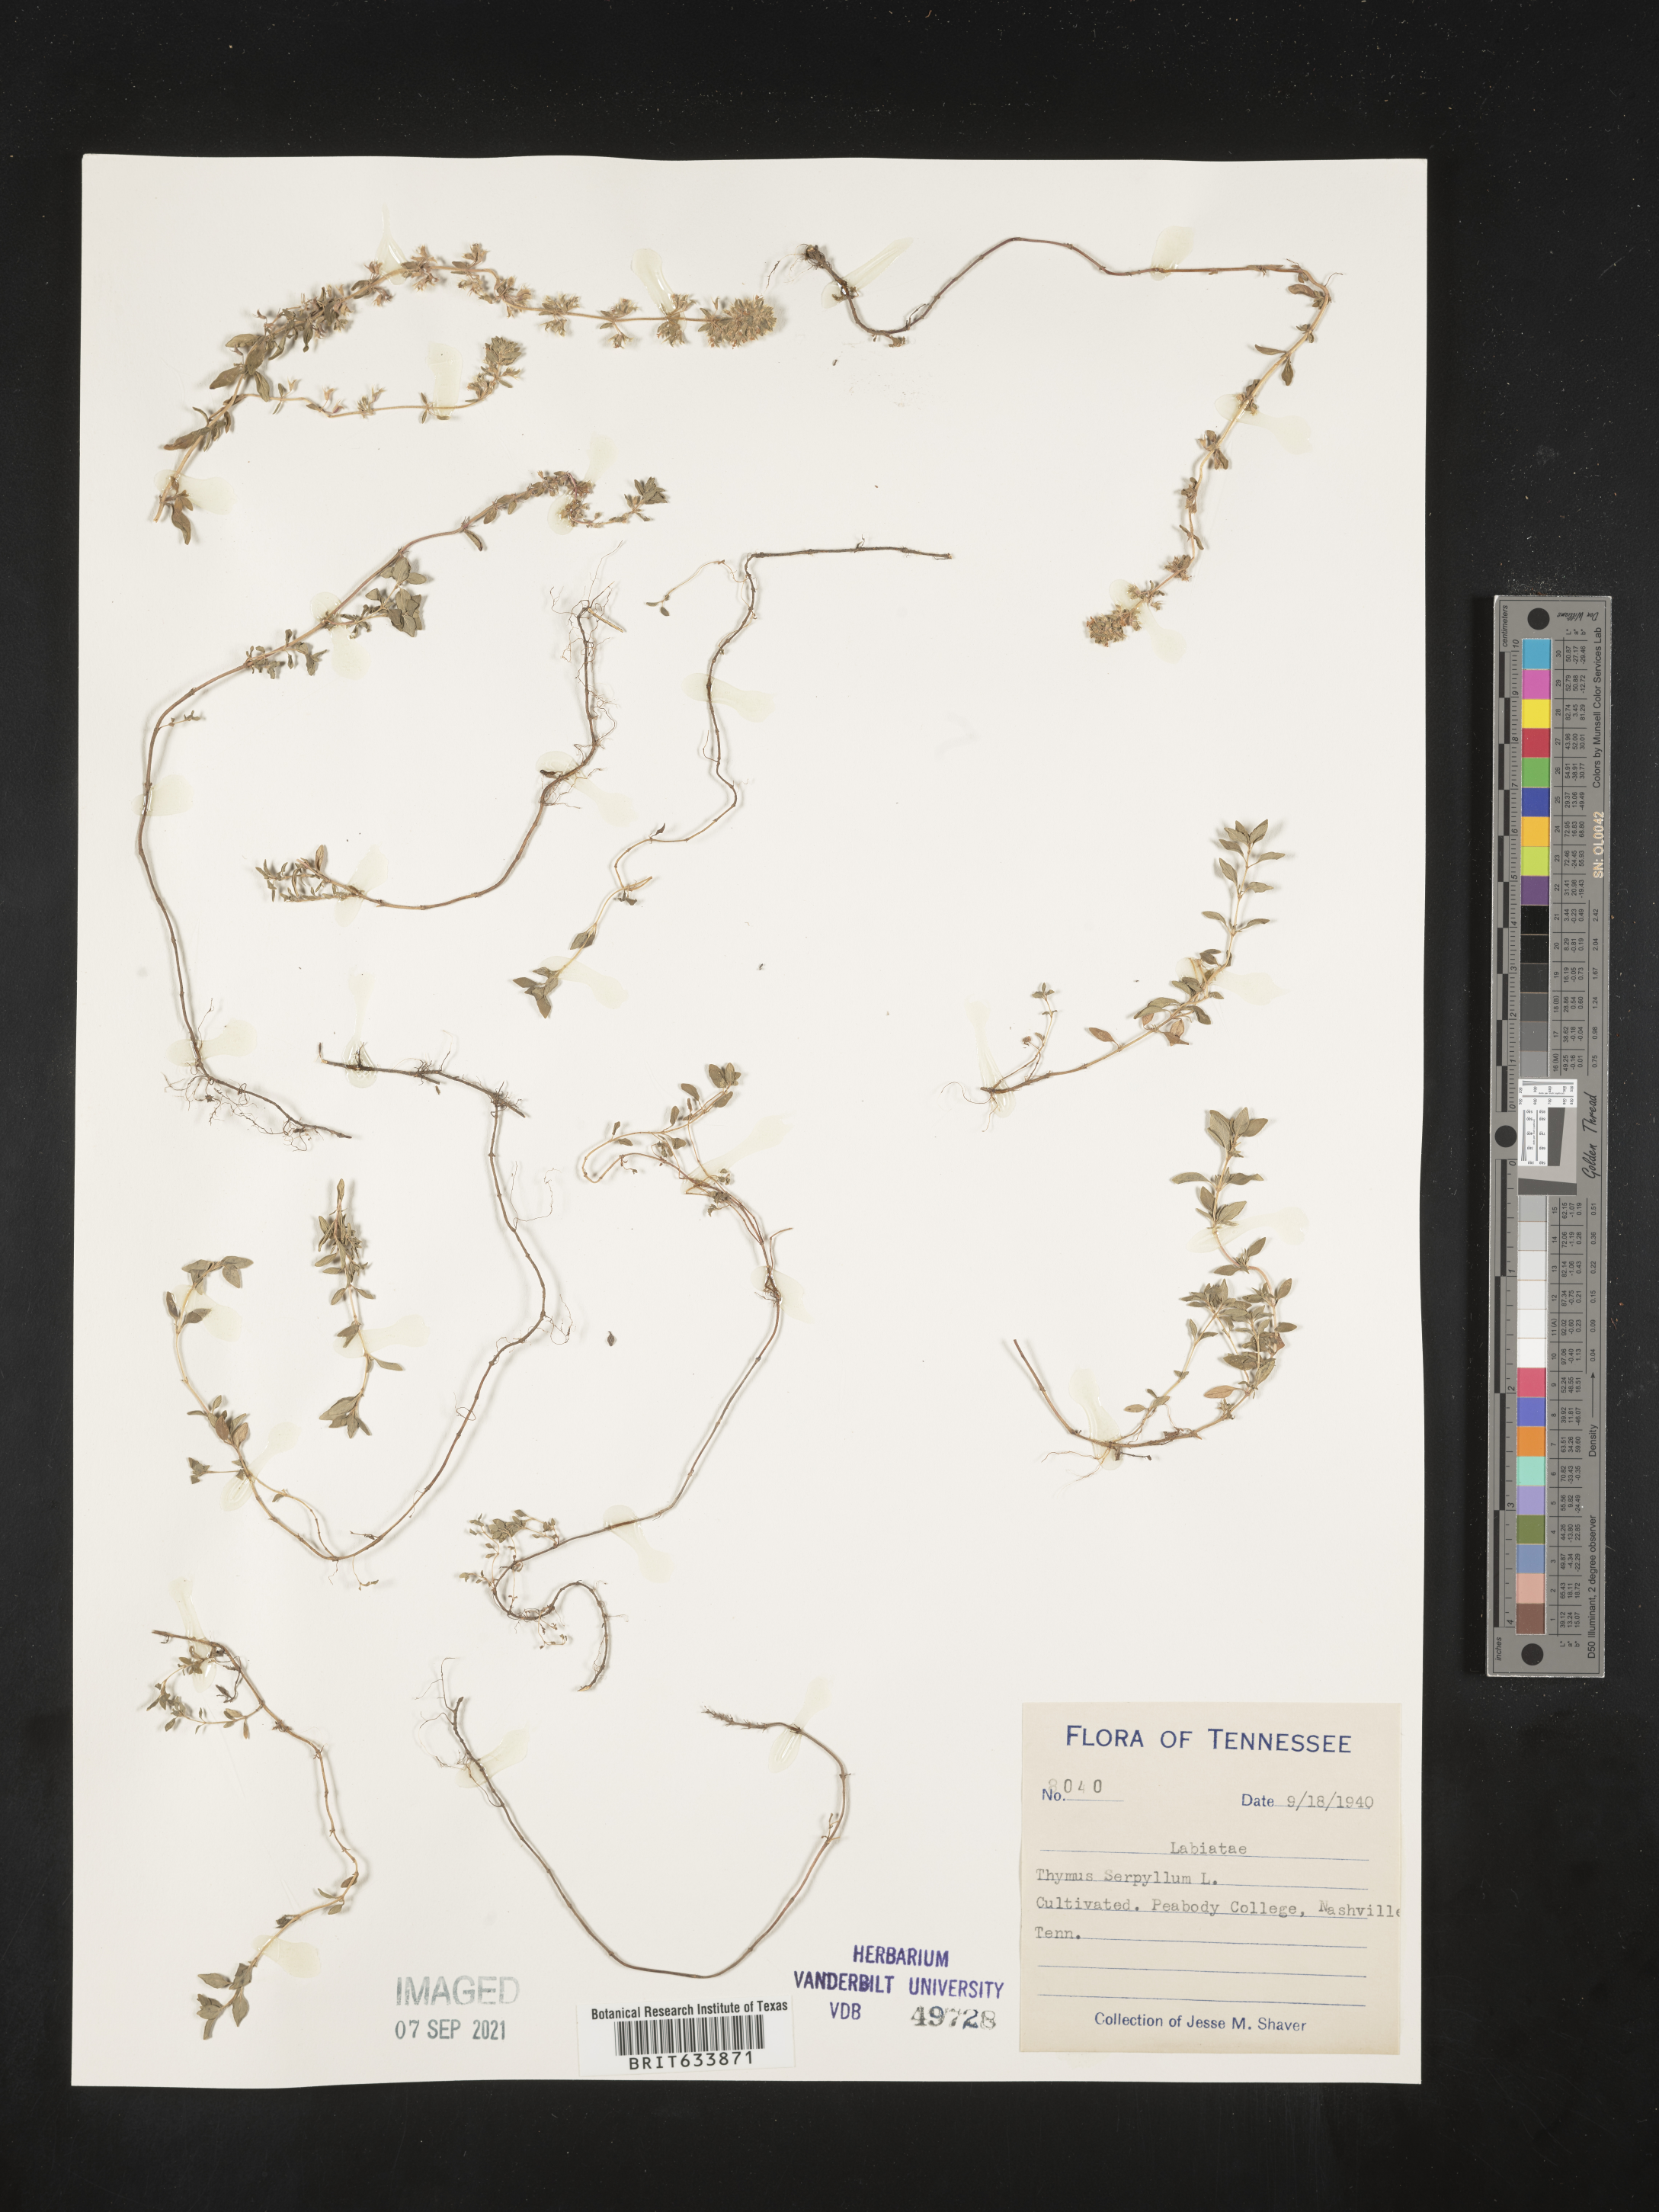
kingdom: Plantae
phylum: Tracheophyta
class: Magnoliopsida
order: Lamiales
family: Lamiaceae
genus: Thymus
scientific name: Thymus
